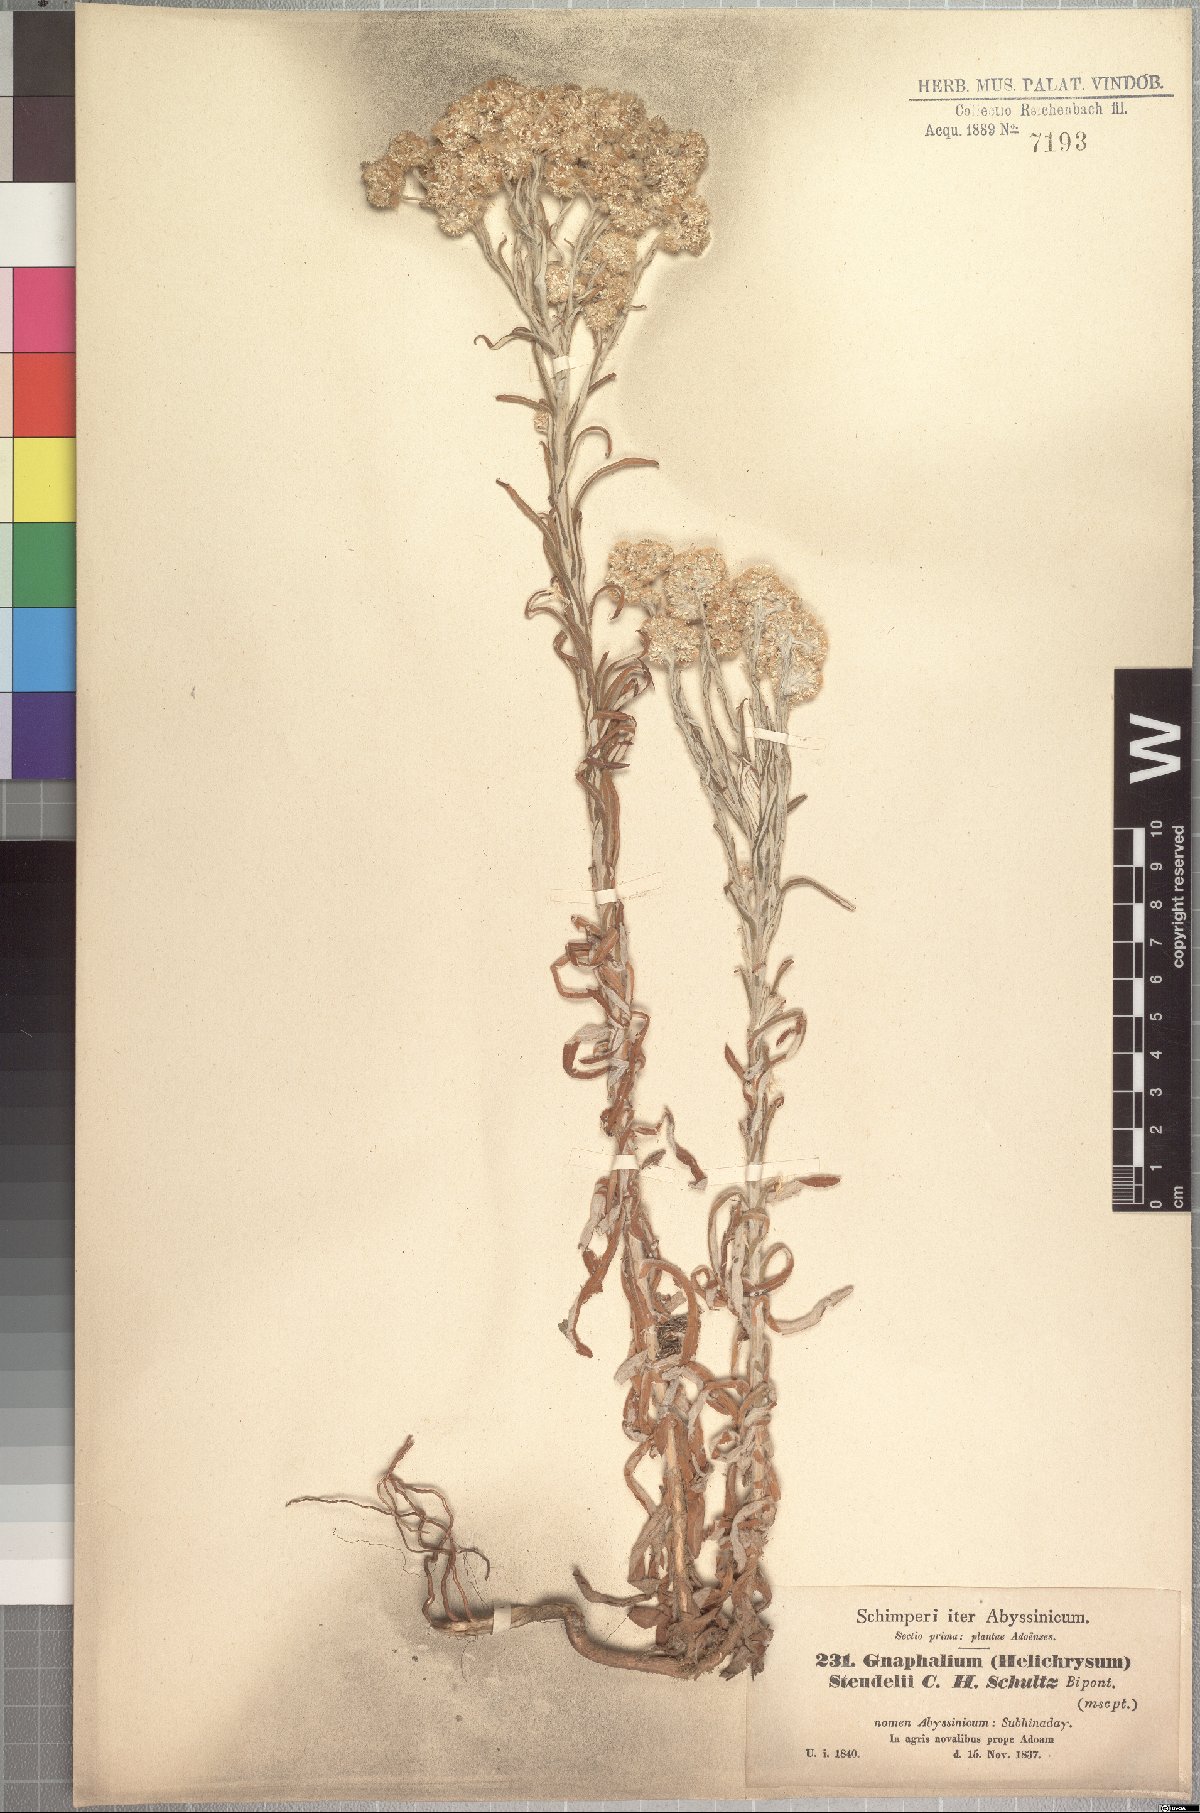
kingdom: Plantae
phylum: Tracheophyta
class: Magnoliopsida
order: Asterales
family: Asteraceae
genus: Pseudognaphalium
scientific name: Pseudognaphalium oligandrum
